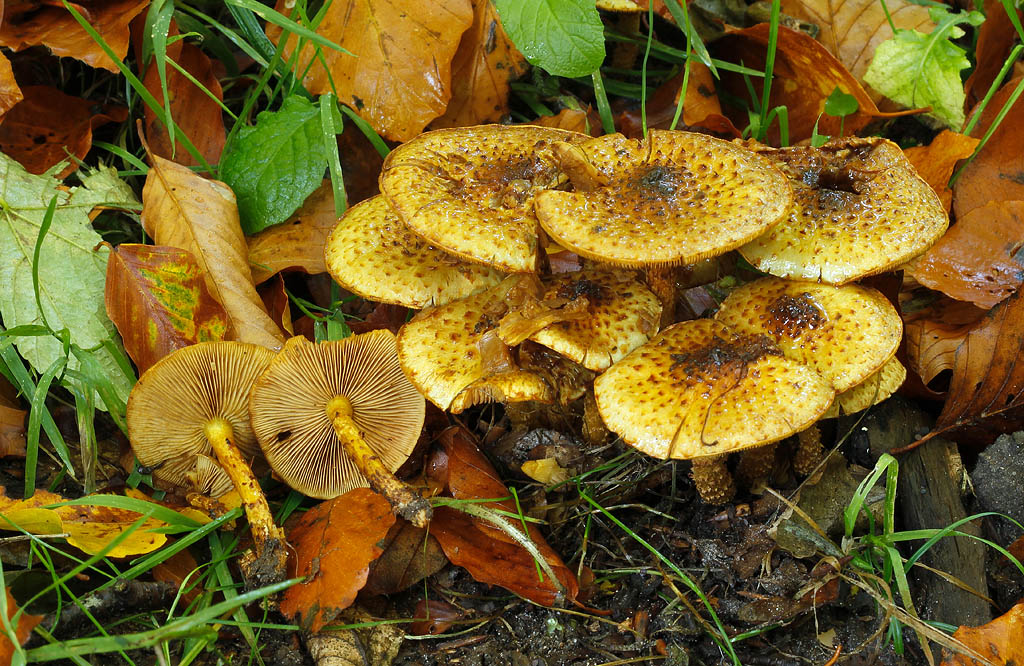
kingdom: Fungi
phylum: Basidiomycota
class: Agaricomycetes
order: Agaricales
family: Strophariaceae
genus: Pholiota
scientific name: Pholiota jahnii
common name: slimet skælhat
